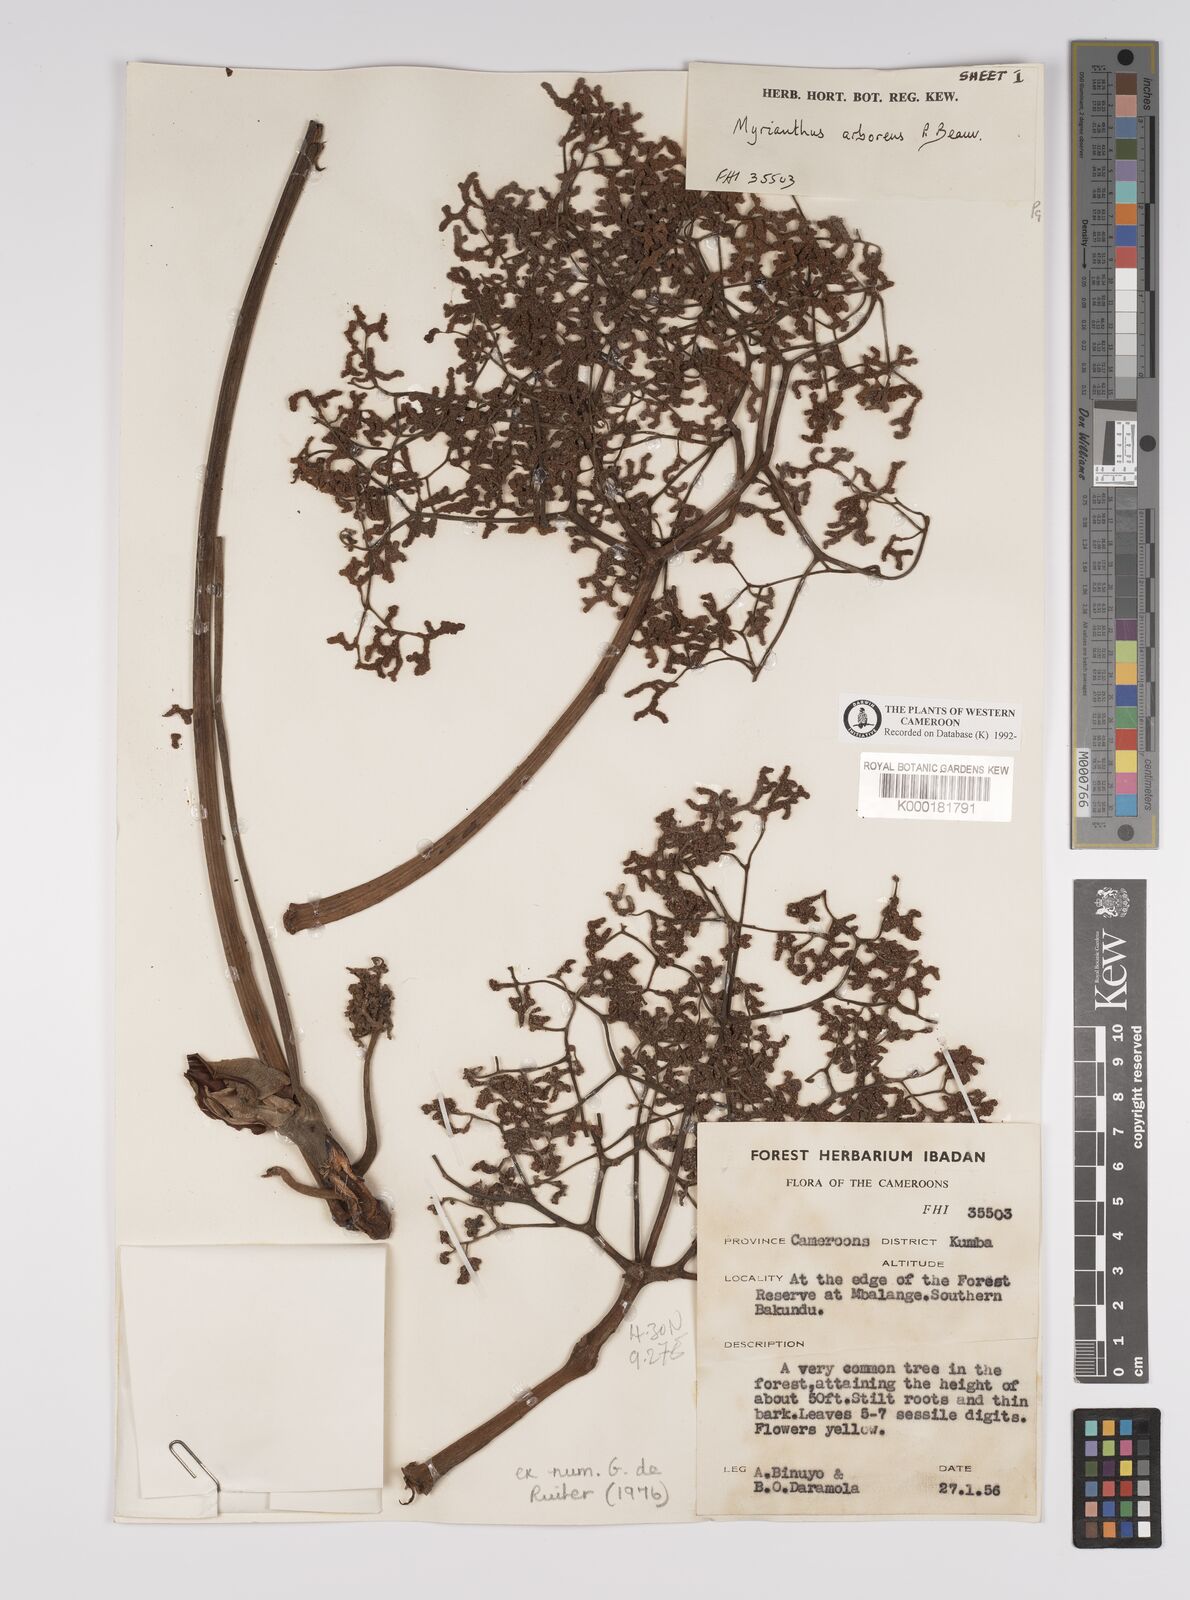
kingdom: Plantae
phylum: Tracheophyta
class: Magnoliopsida
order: Rosales
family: Urticaceae
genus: Myrianthus
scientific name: Myrianthus arboreus
